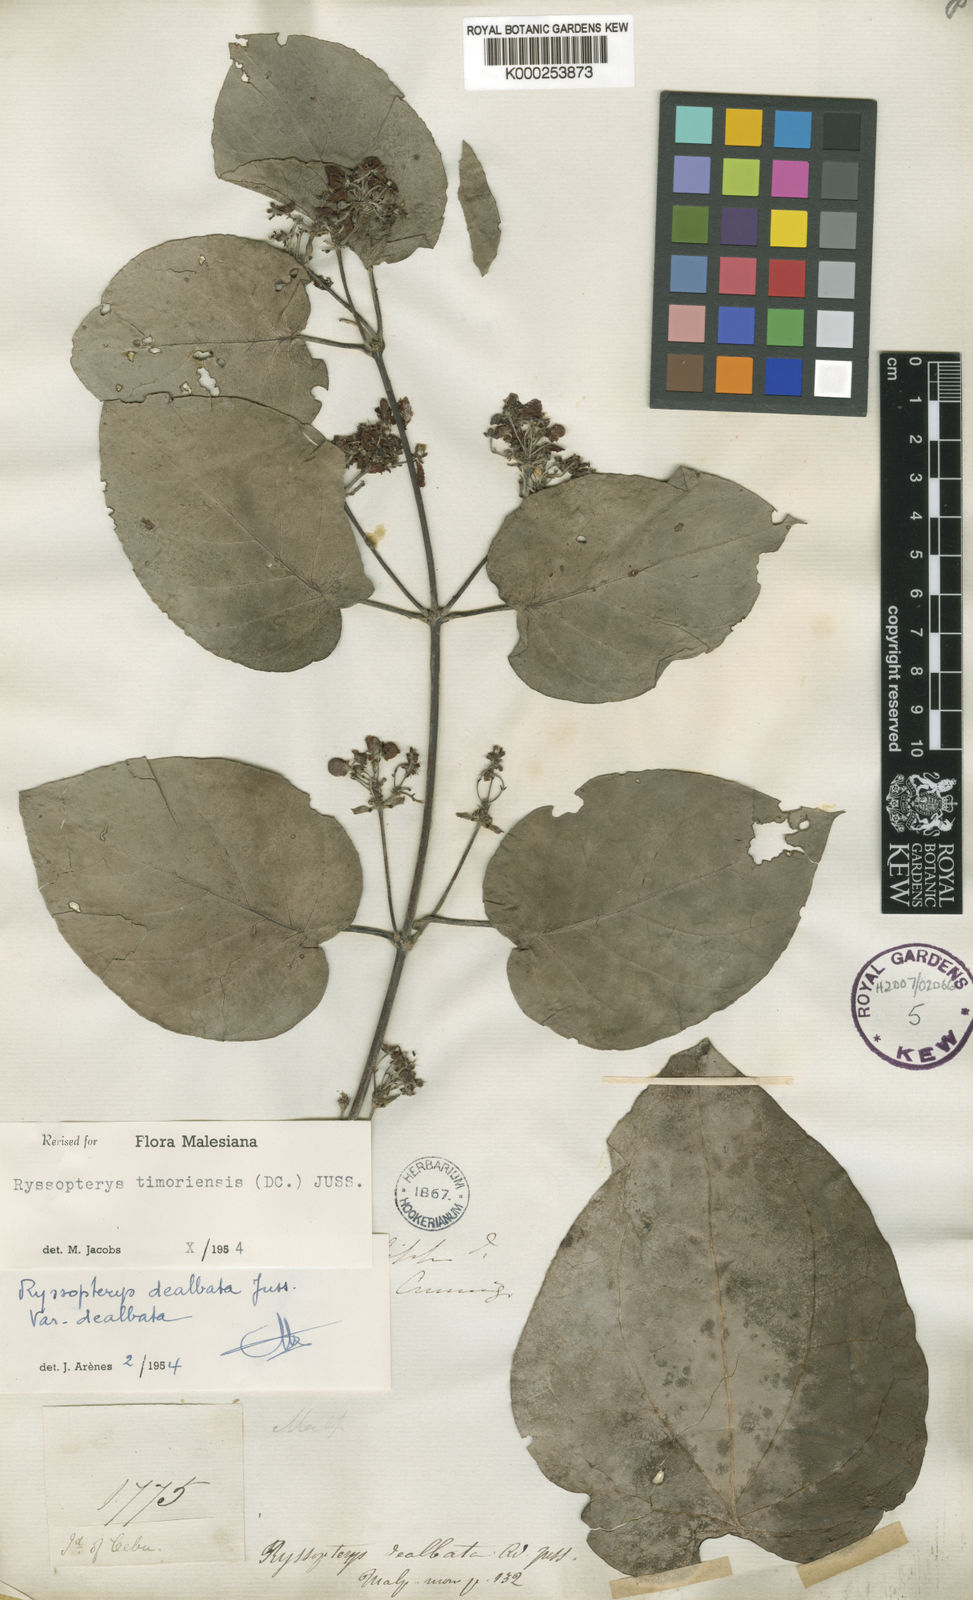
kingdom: Plantae
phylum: Tracheophyta
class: Magnoliopsida
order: Malpighiales
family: Malpighiaceae
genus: Stigmaphyllon
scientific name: Stigmaphyllon dealbatum
